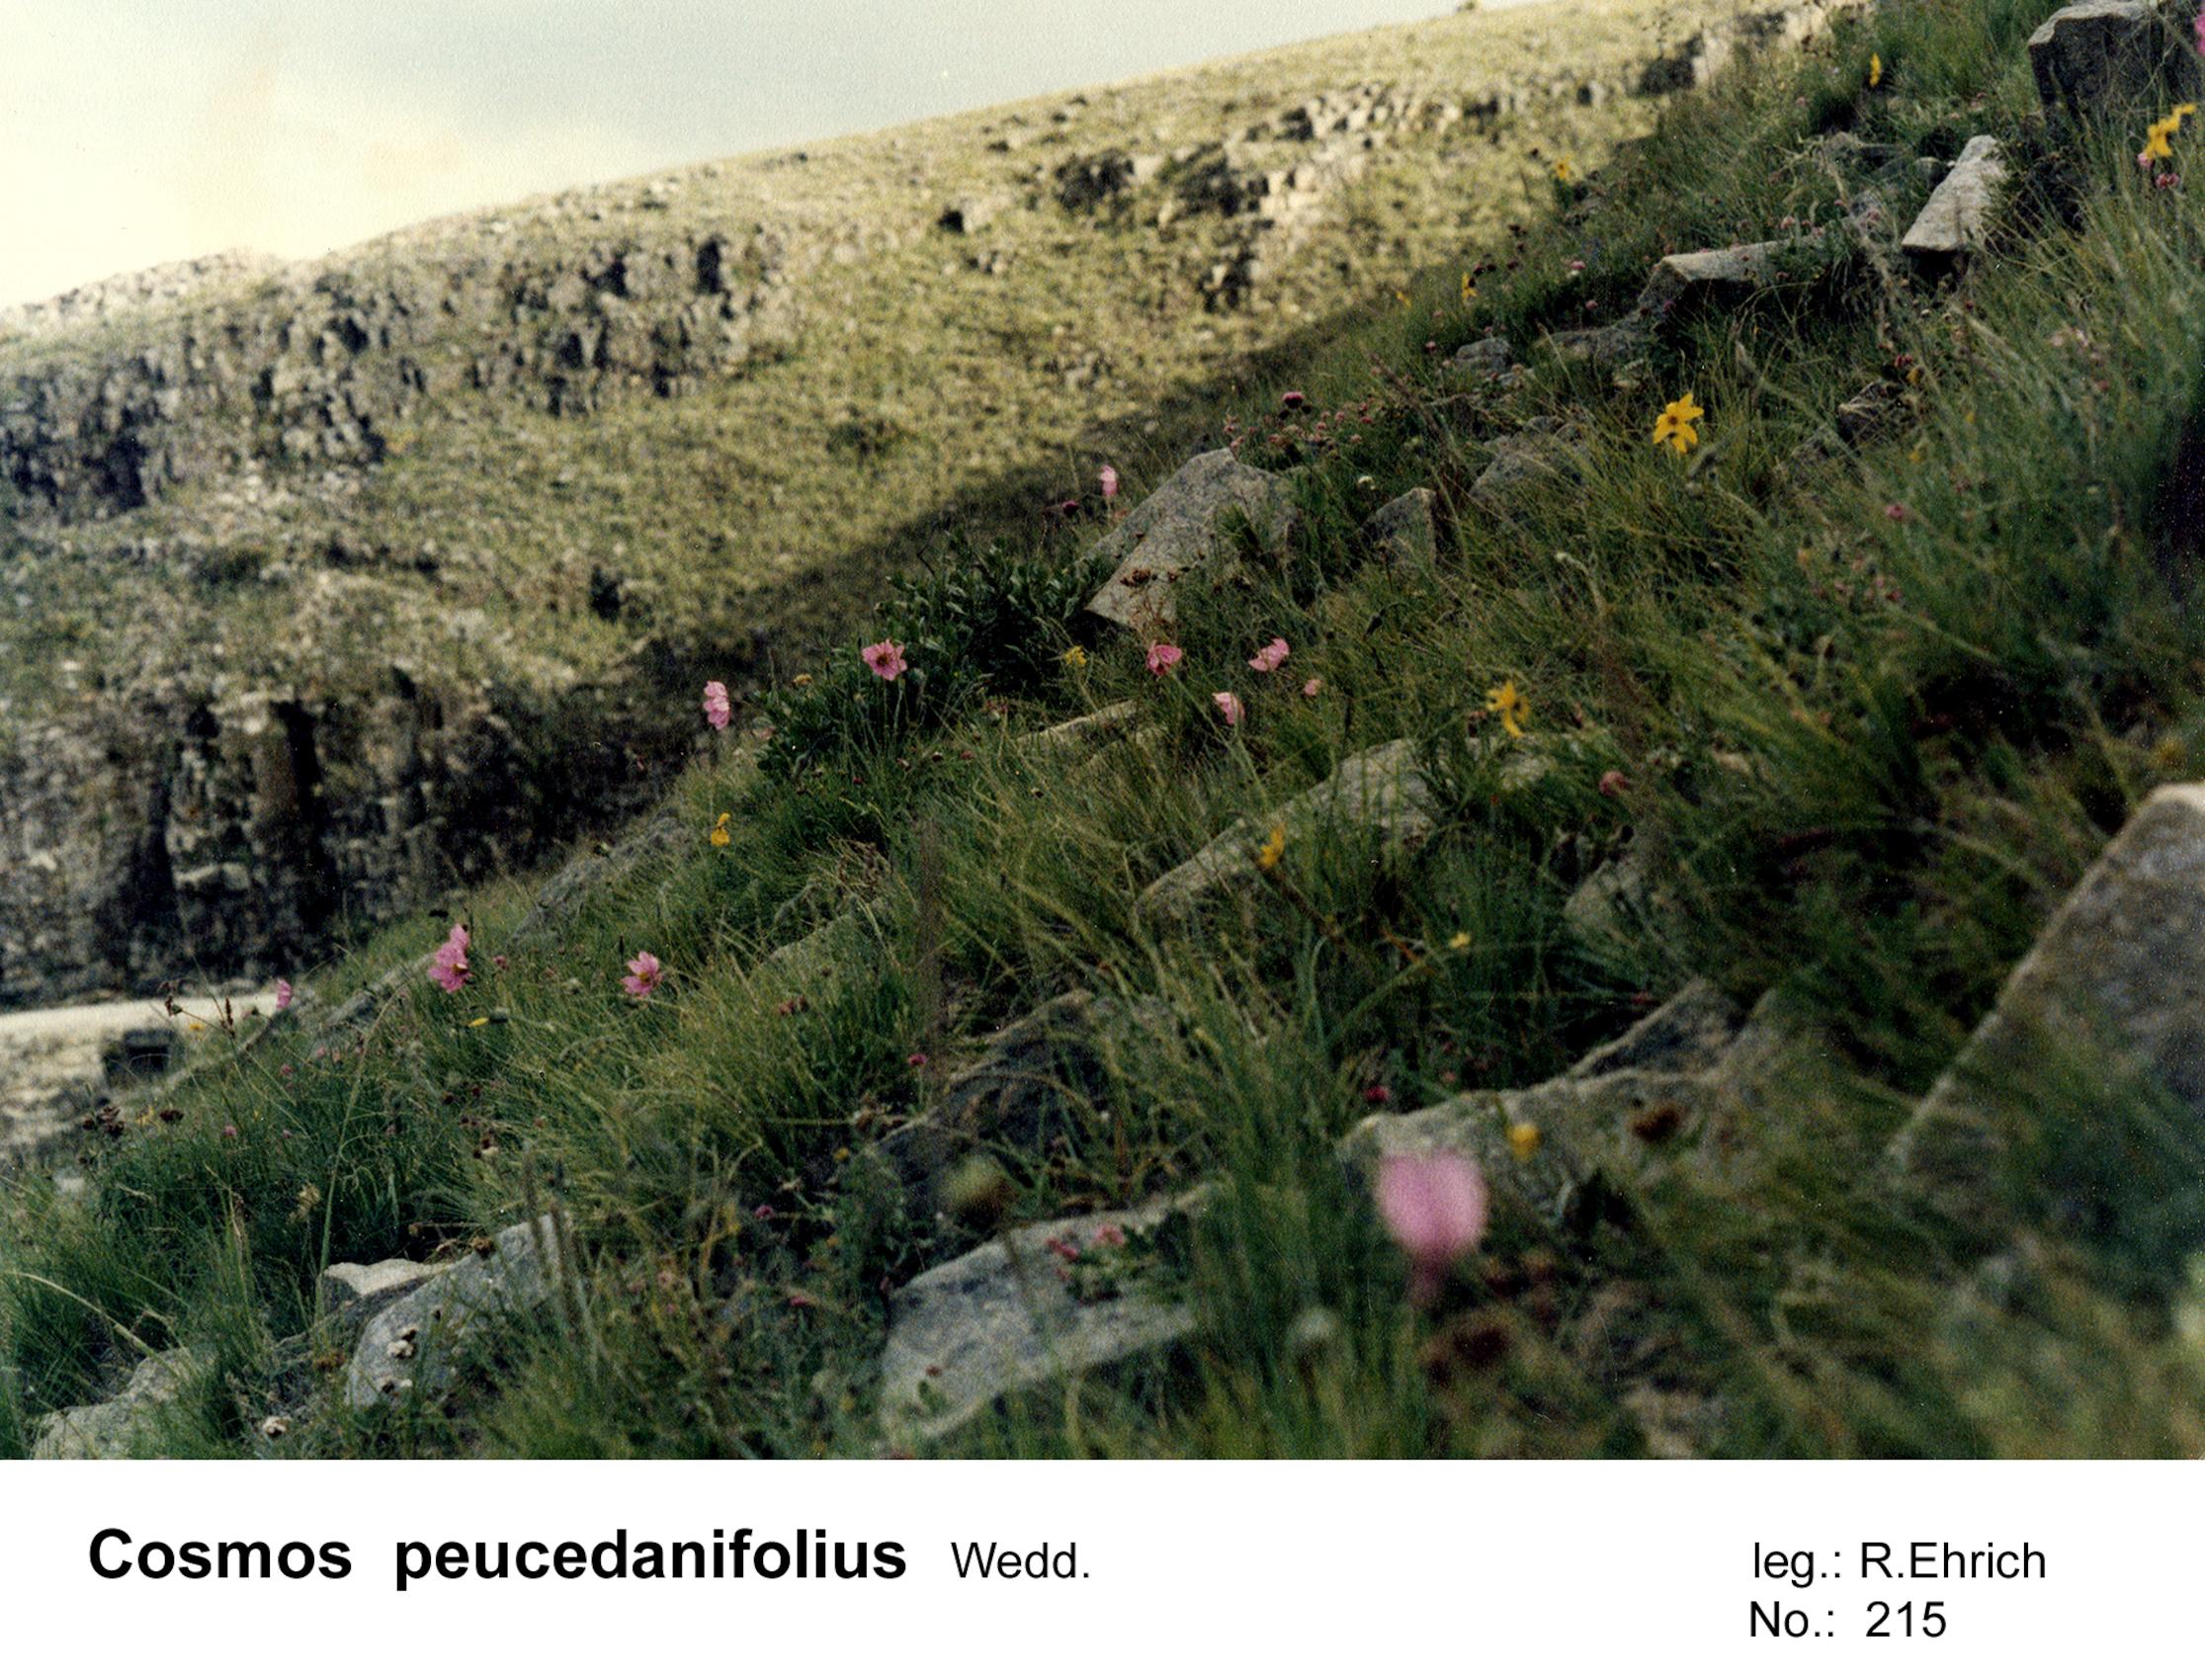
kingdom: Plantae
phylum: Tracheophyta
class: Magnoliopsida
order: Asterales
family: Asteraceae
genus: Cosmos
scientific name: Cosmos peucedanifolius
